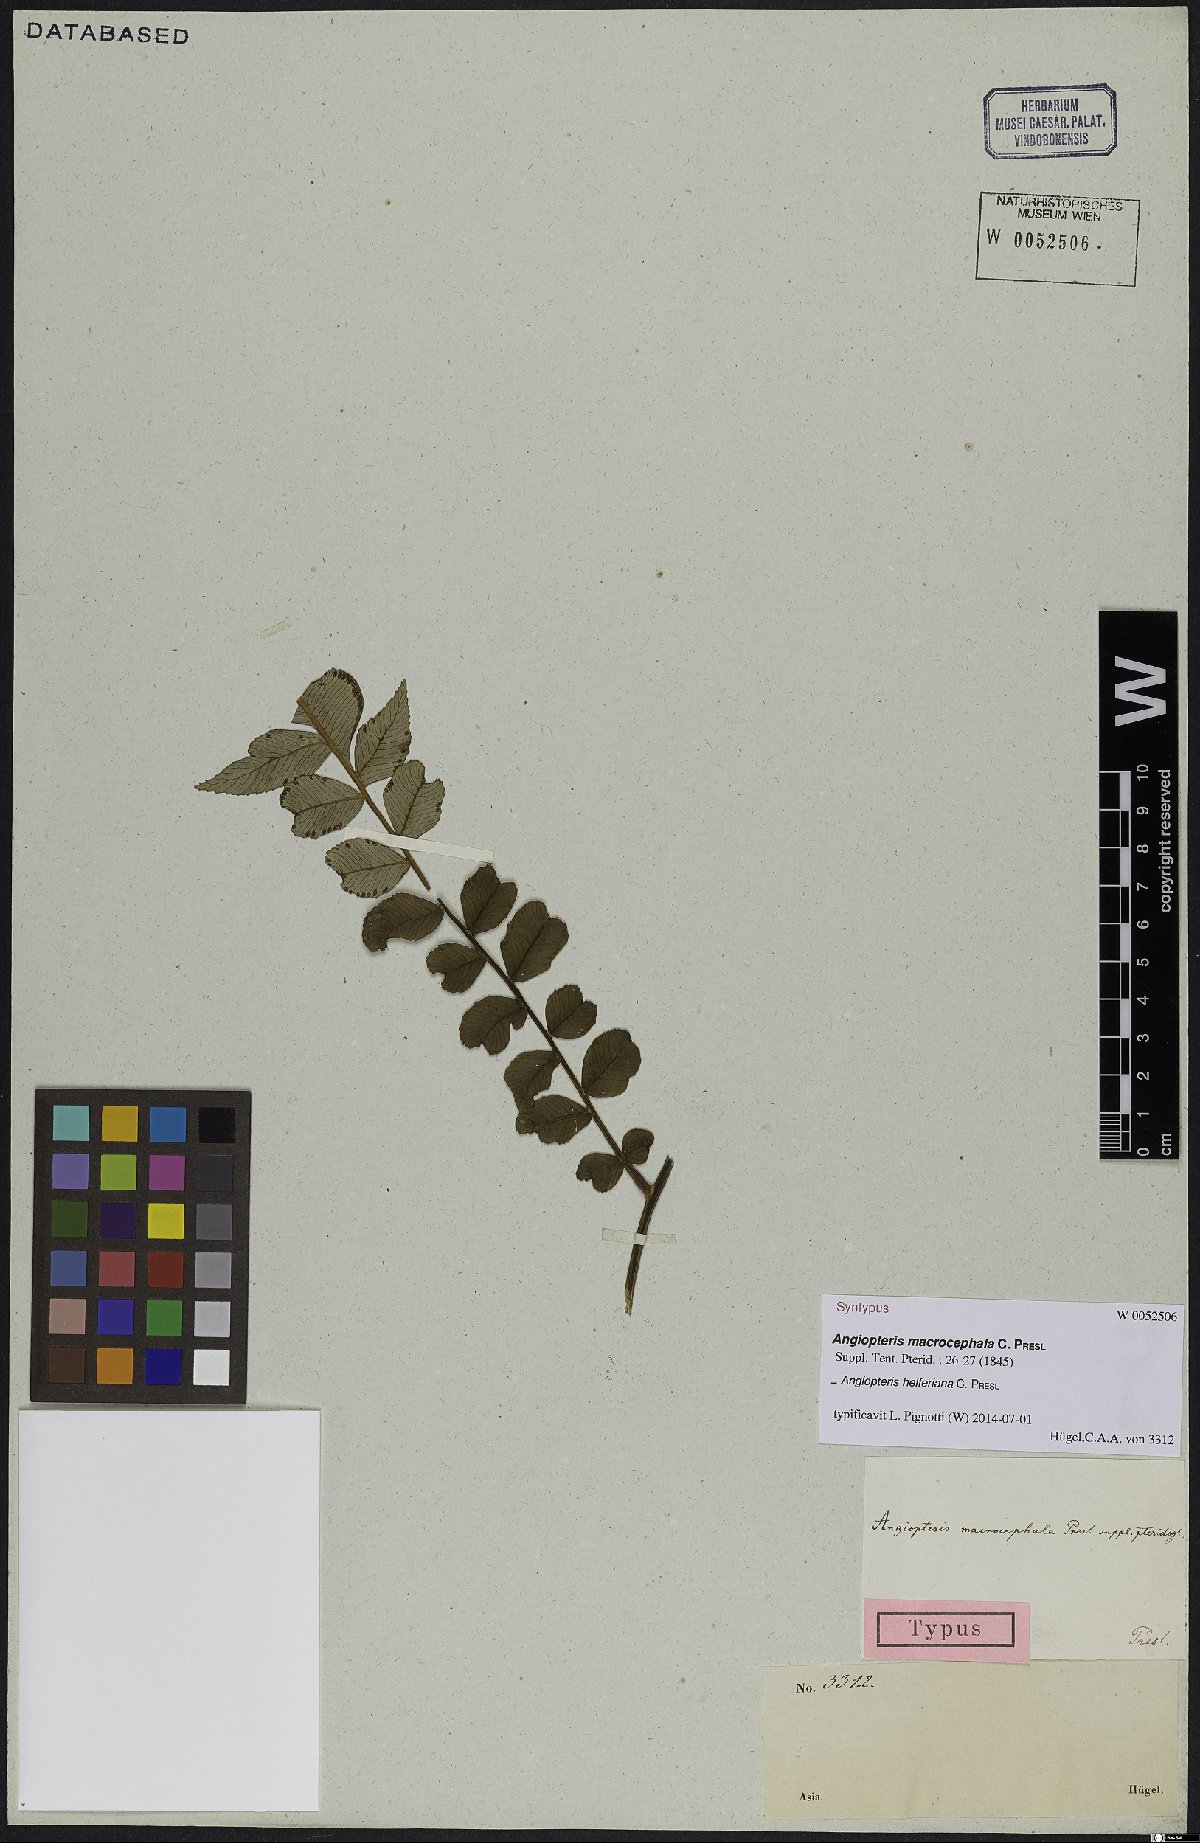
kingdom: Plantae
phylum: Tracheophyta
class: Polypodiopsida
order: Marattiales
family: Marattiaceae
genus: Angiopteris
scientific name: Angiopteris helferiana
